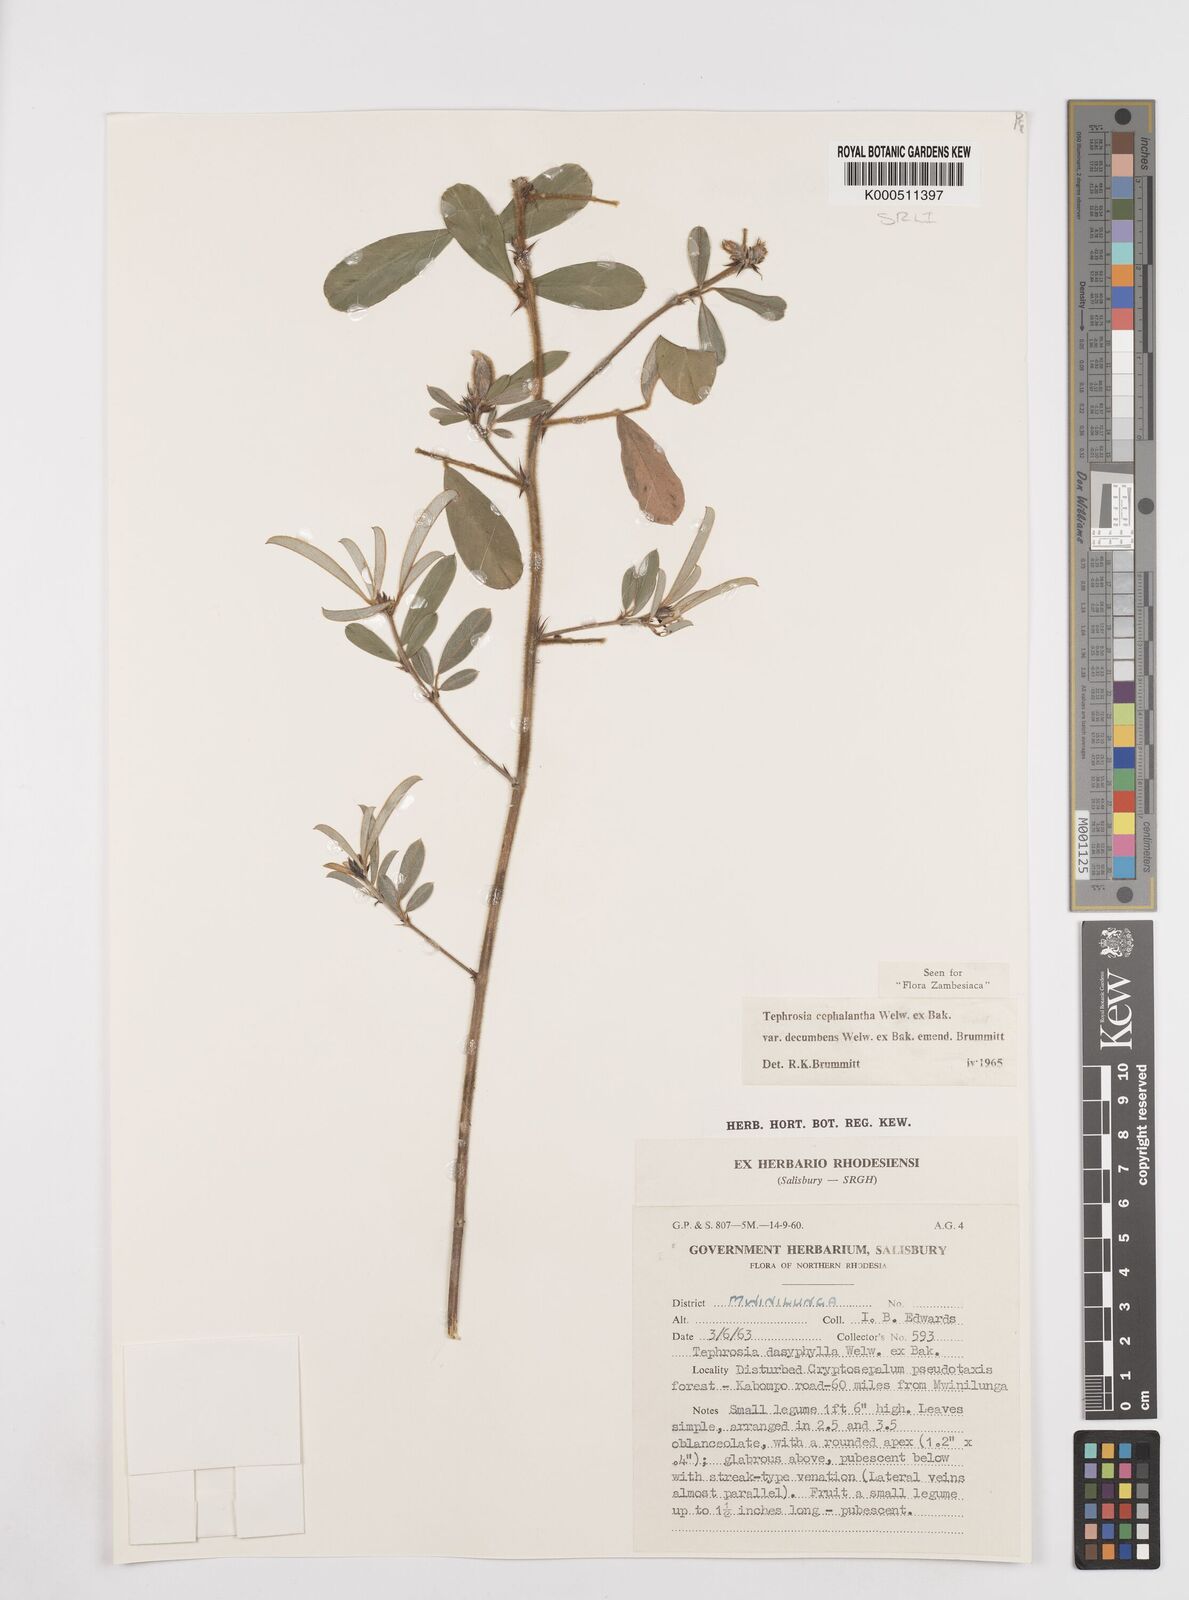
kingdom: Plantae
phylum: Tracheophyta
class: Magnoliopsida
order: Fabales
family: Fabaceae
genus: Tephrosia
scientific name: Tephrosia
